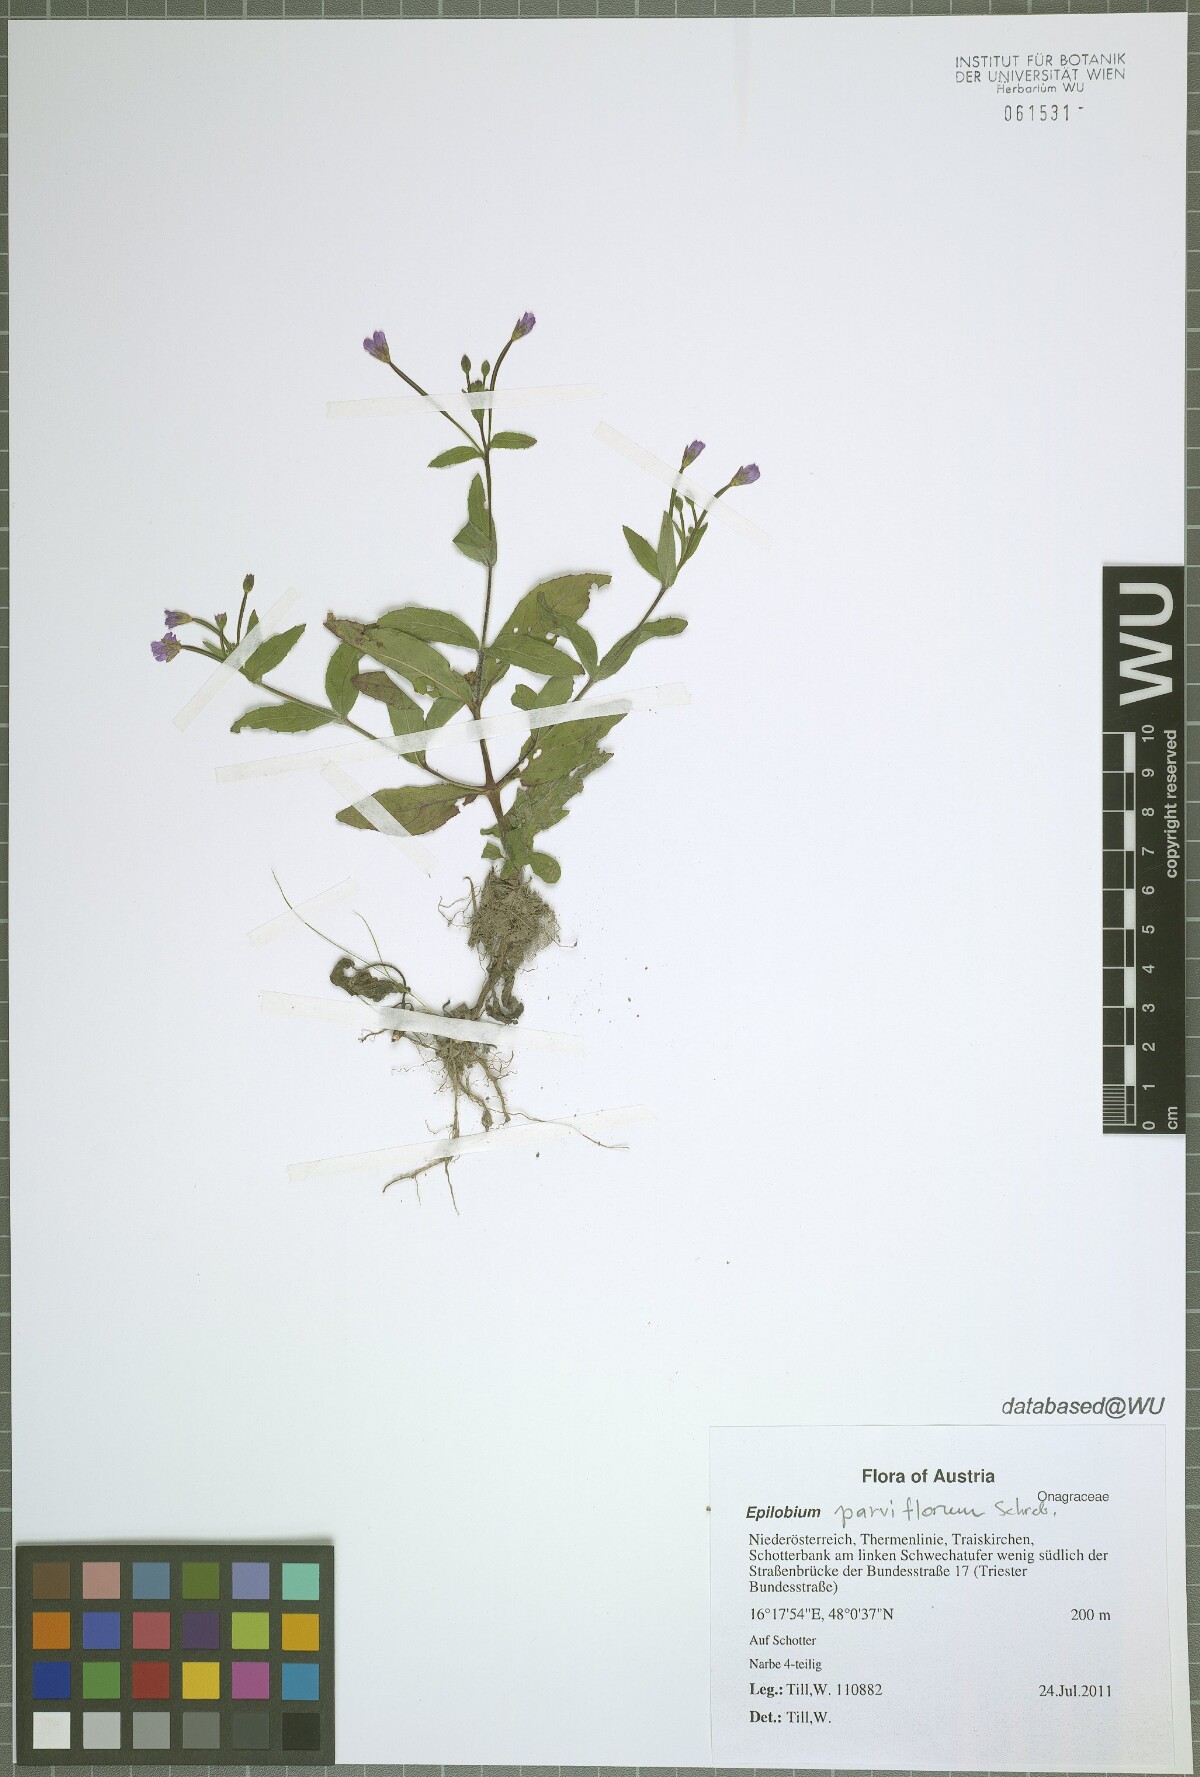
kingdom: Plantae
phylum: Tracheophyta
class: Magnoliopsida
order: Myrtales
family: Onagraceae
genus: Epilobium
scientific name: Epilobium parviflorum
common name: Hoary willowherb
